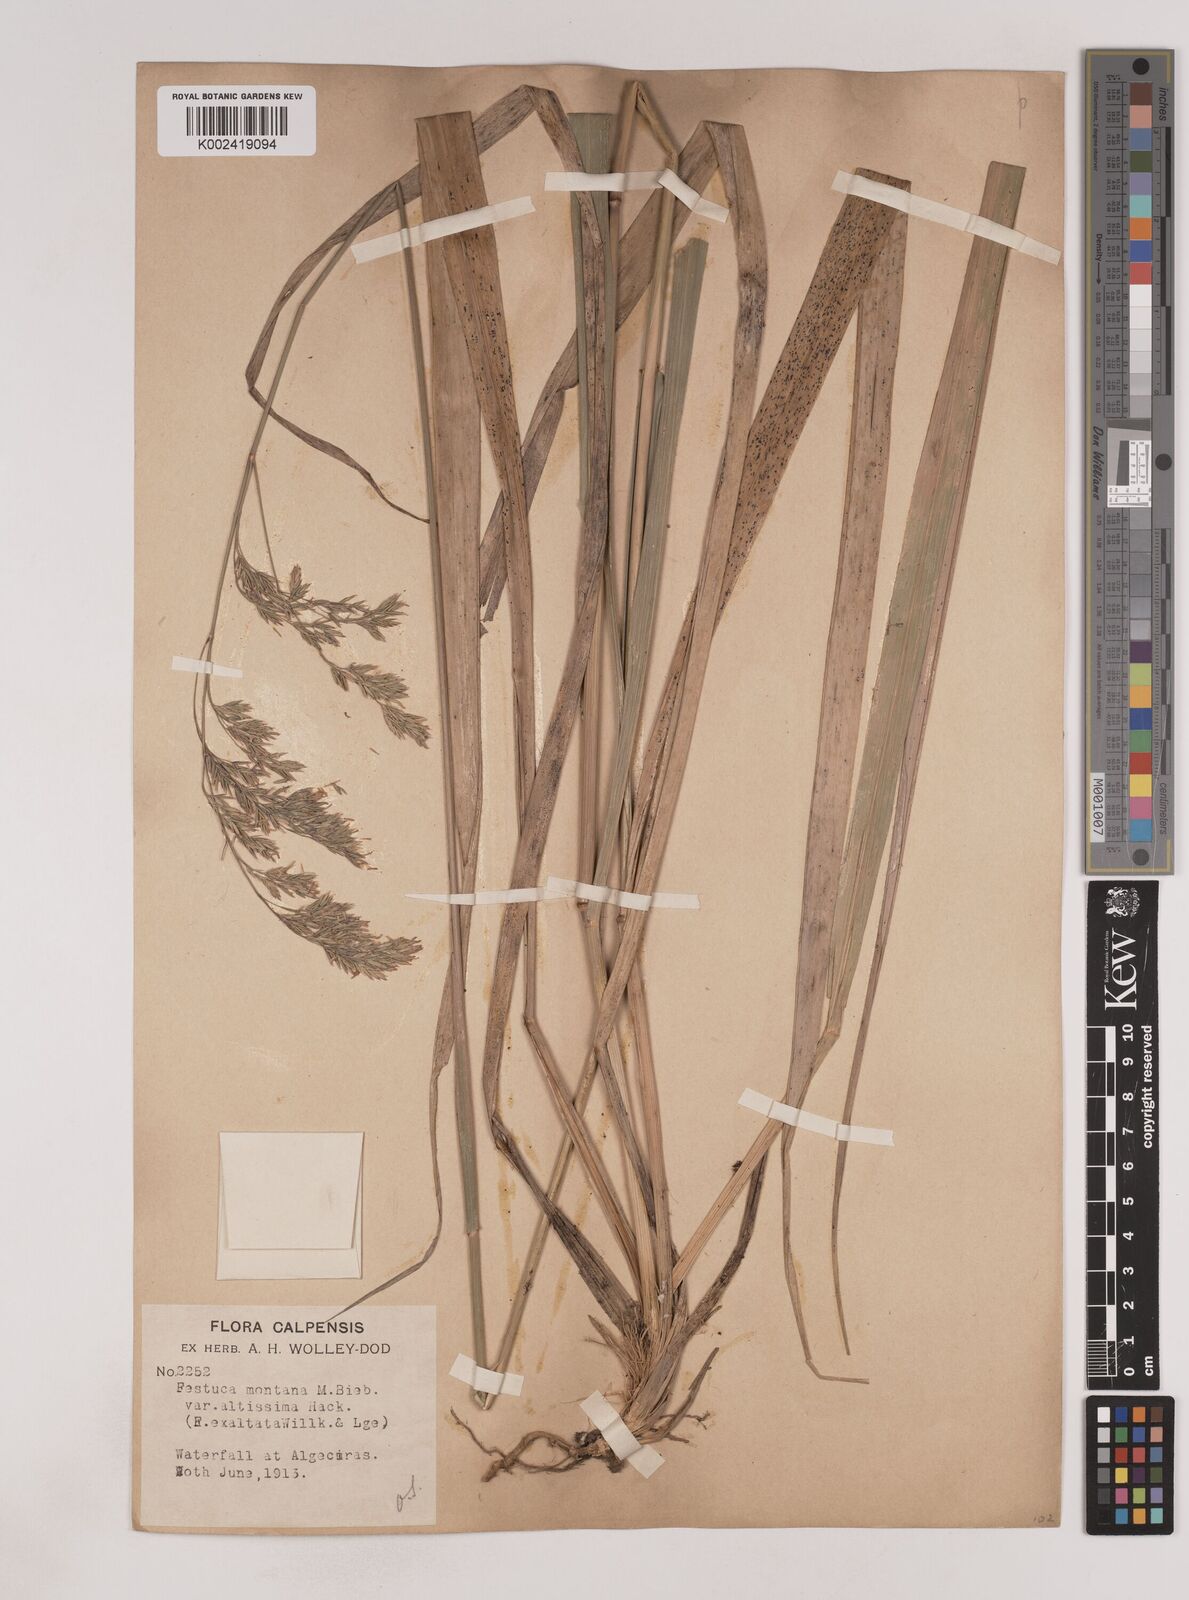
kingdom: Plantae
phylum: Tracheophyta
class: Liliopsida
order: Poales
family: Poaceae
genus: Festuca
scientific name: Festuca drymeja
